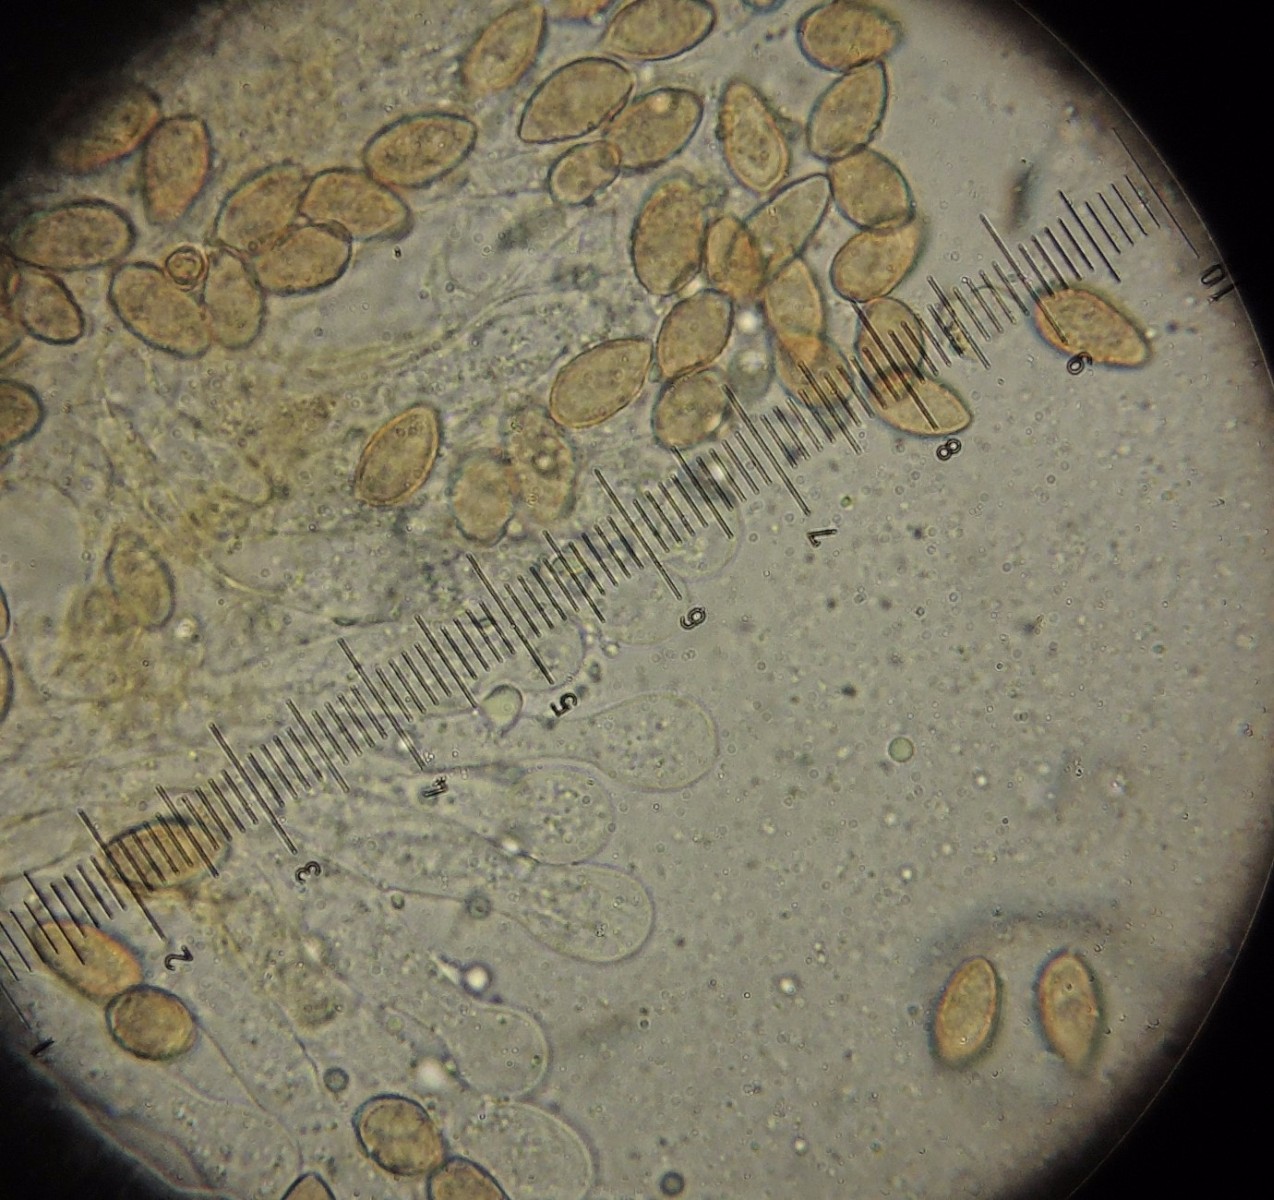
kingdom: Fungi
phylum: Basidiomycota
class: Agaricomycetes
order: Agaricales
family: Hymenogastraceae
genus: Galerina
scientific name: Galerina jaapii
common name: hvidbæltet hjelmhat
